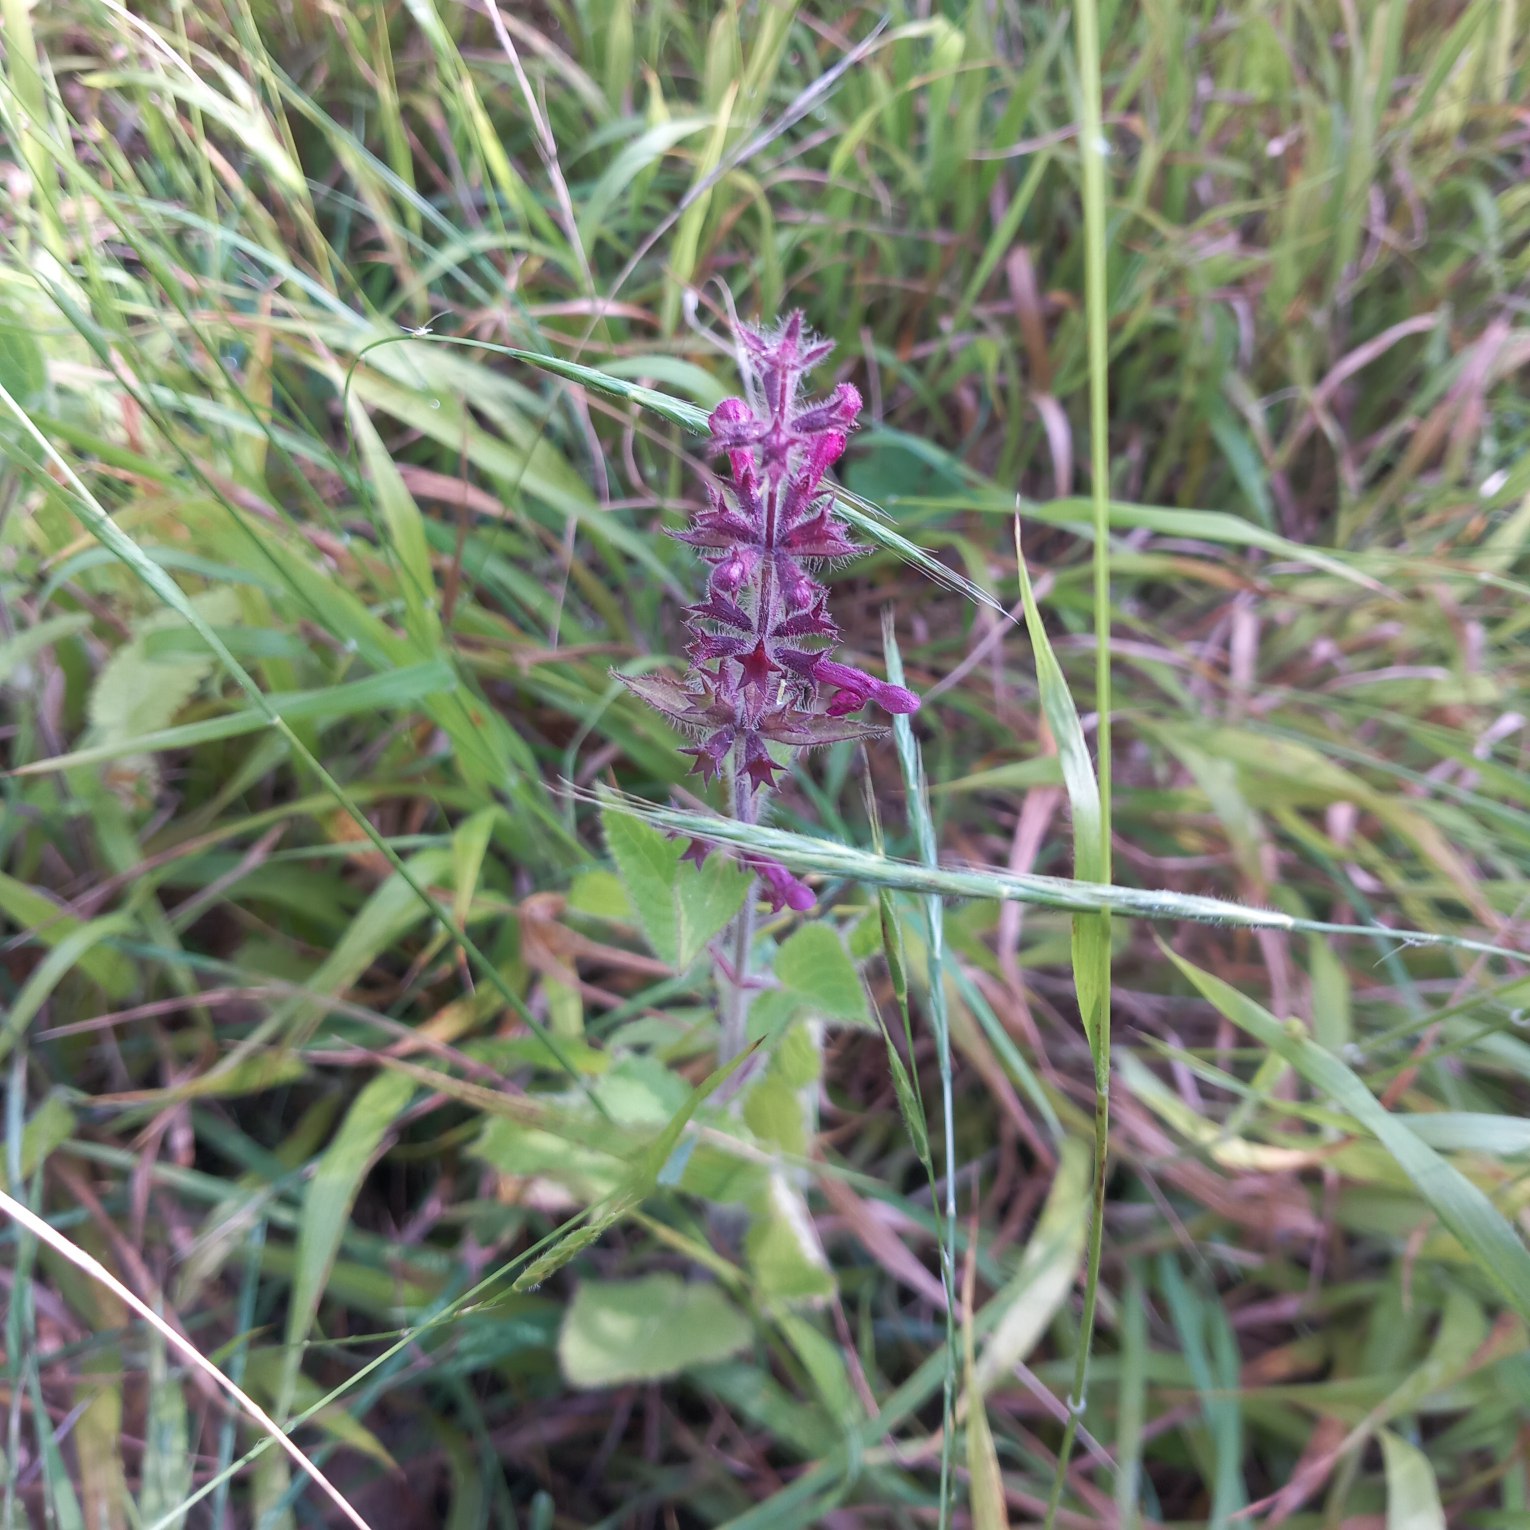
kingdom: Plantae
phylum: Tracheophyta
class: Magnoliopsida
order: Lamiales
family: Lamiaceae
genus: Stachys
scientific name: Stachys sylvatica
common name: Skov-galtetand
